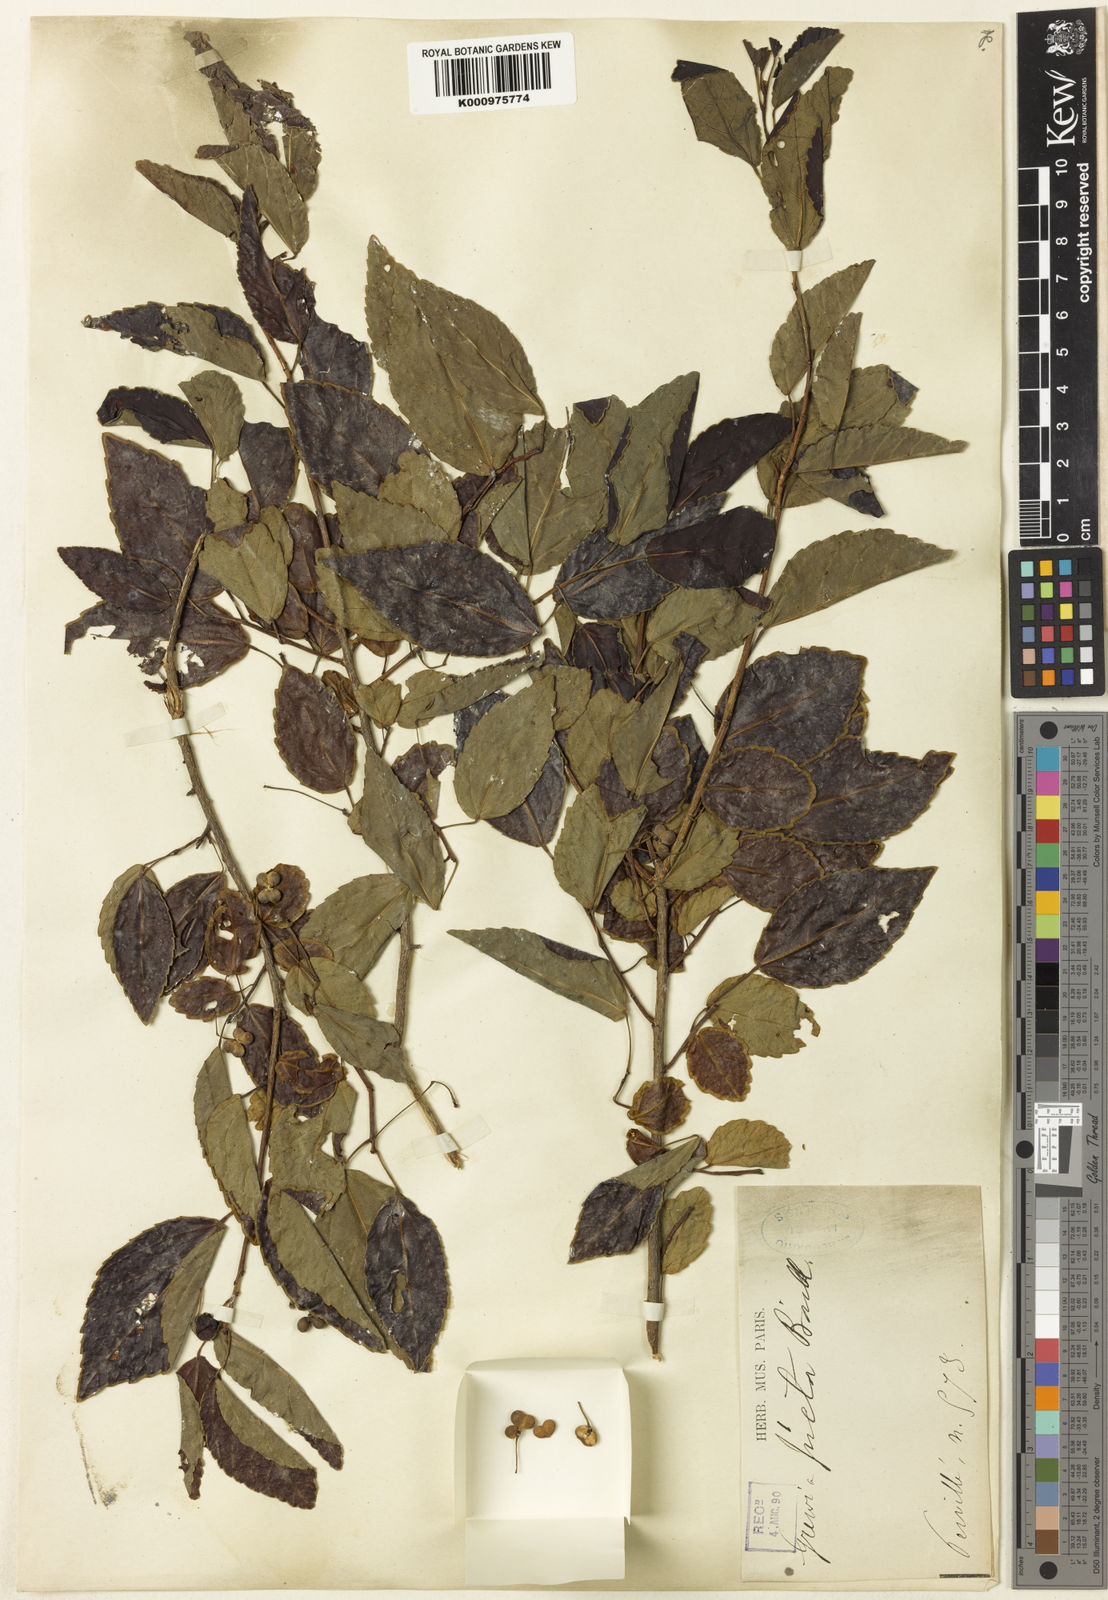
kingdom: Plantae
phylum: Tracheophyta
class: Magnoliopsida
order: Malvales
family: Malvaceae
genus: Grewia
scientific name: Grewia picta
